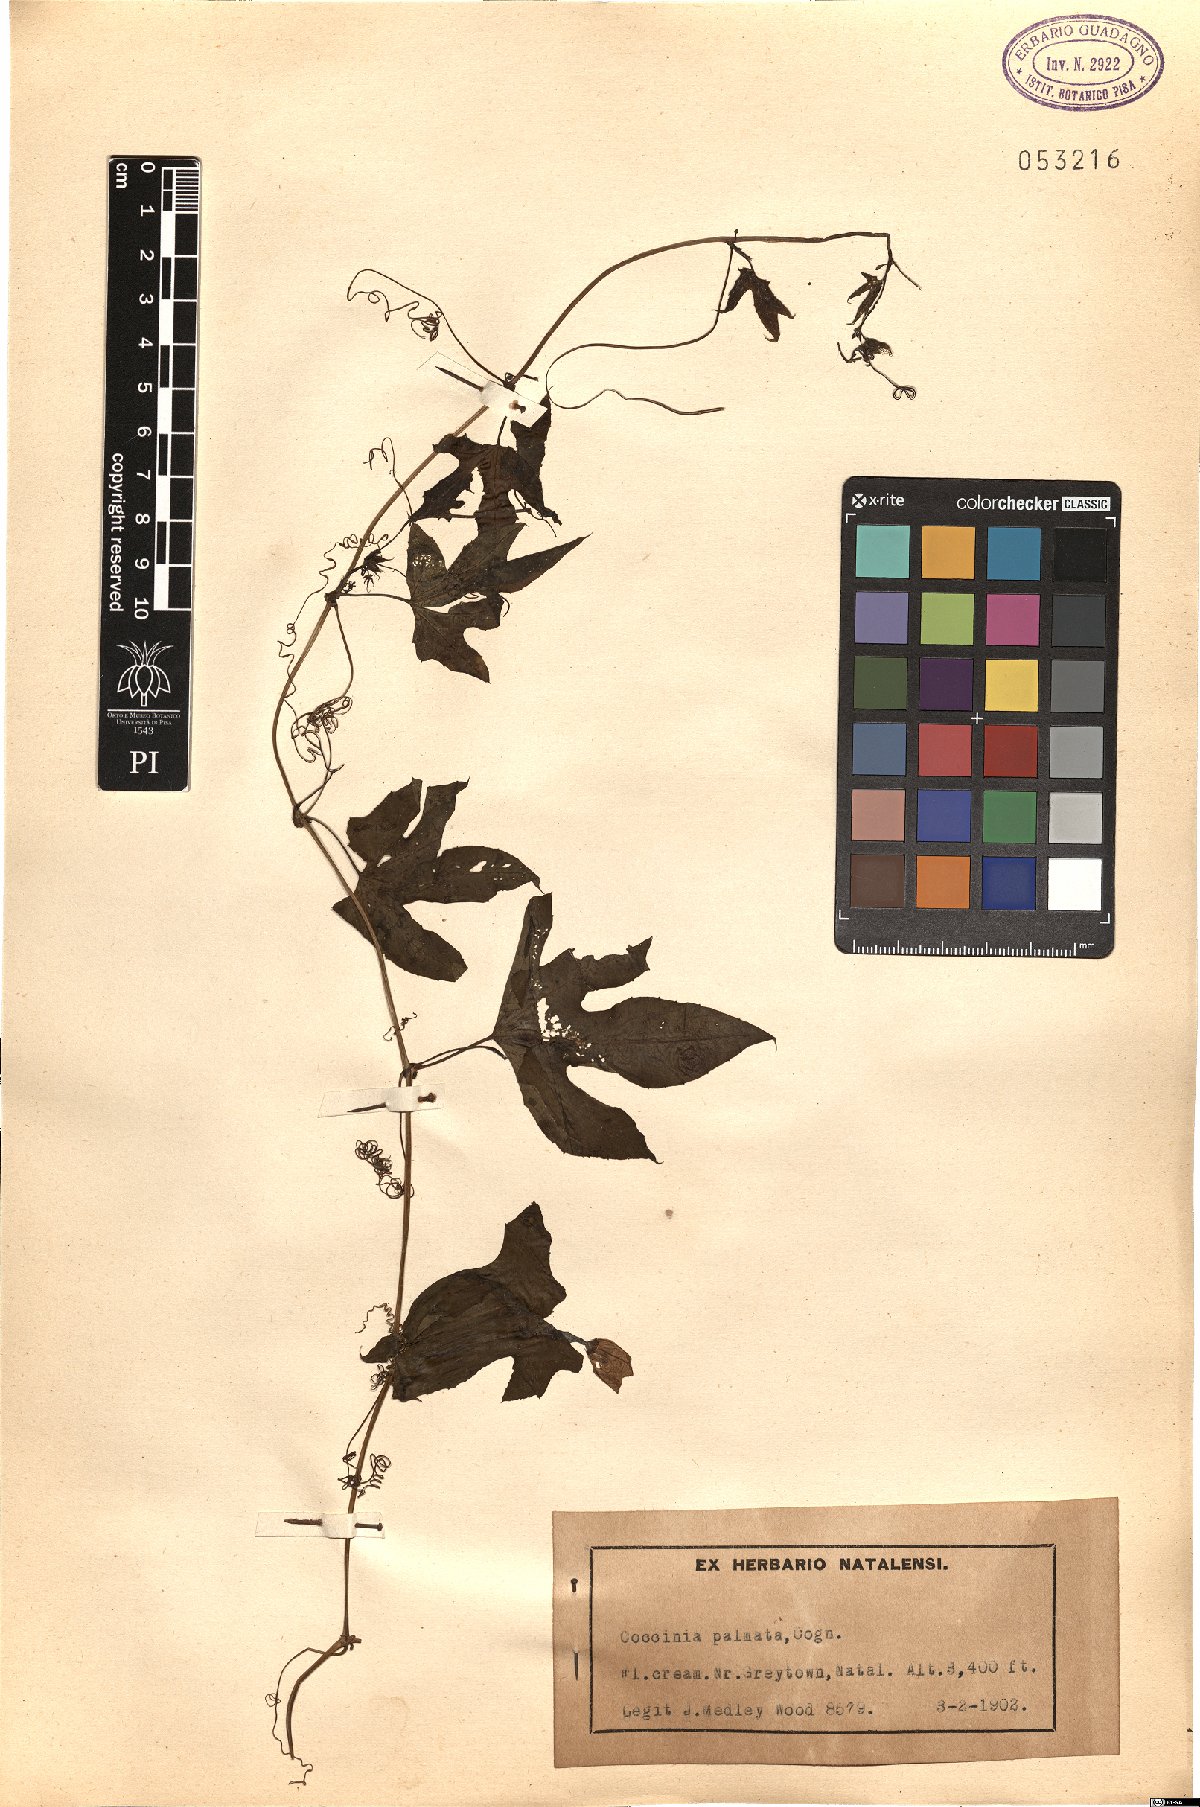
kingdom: Plantae
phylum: Tracheophyta
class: Magnoliopsida
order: Cucurbitales
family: Cucurbitaceae
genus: Coccinia
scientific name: Coccinia palmata
